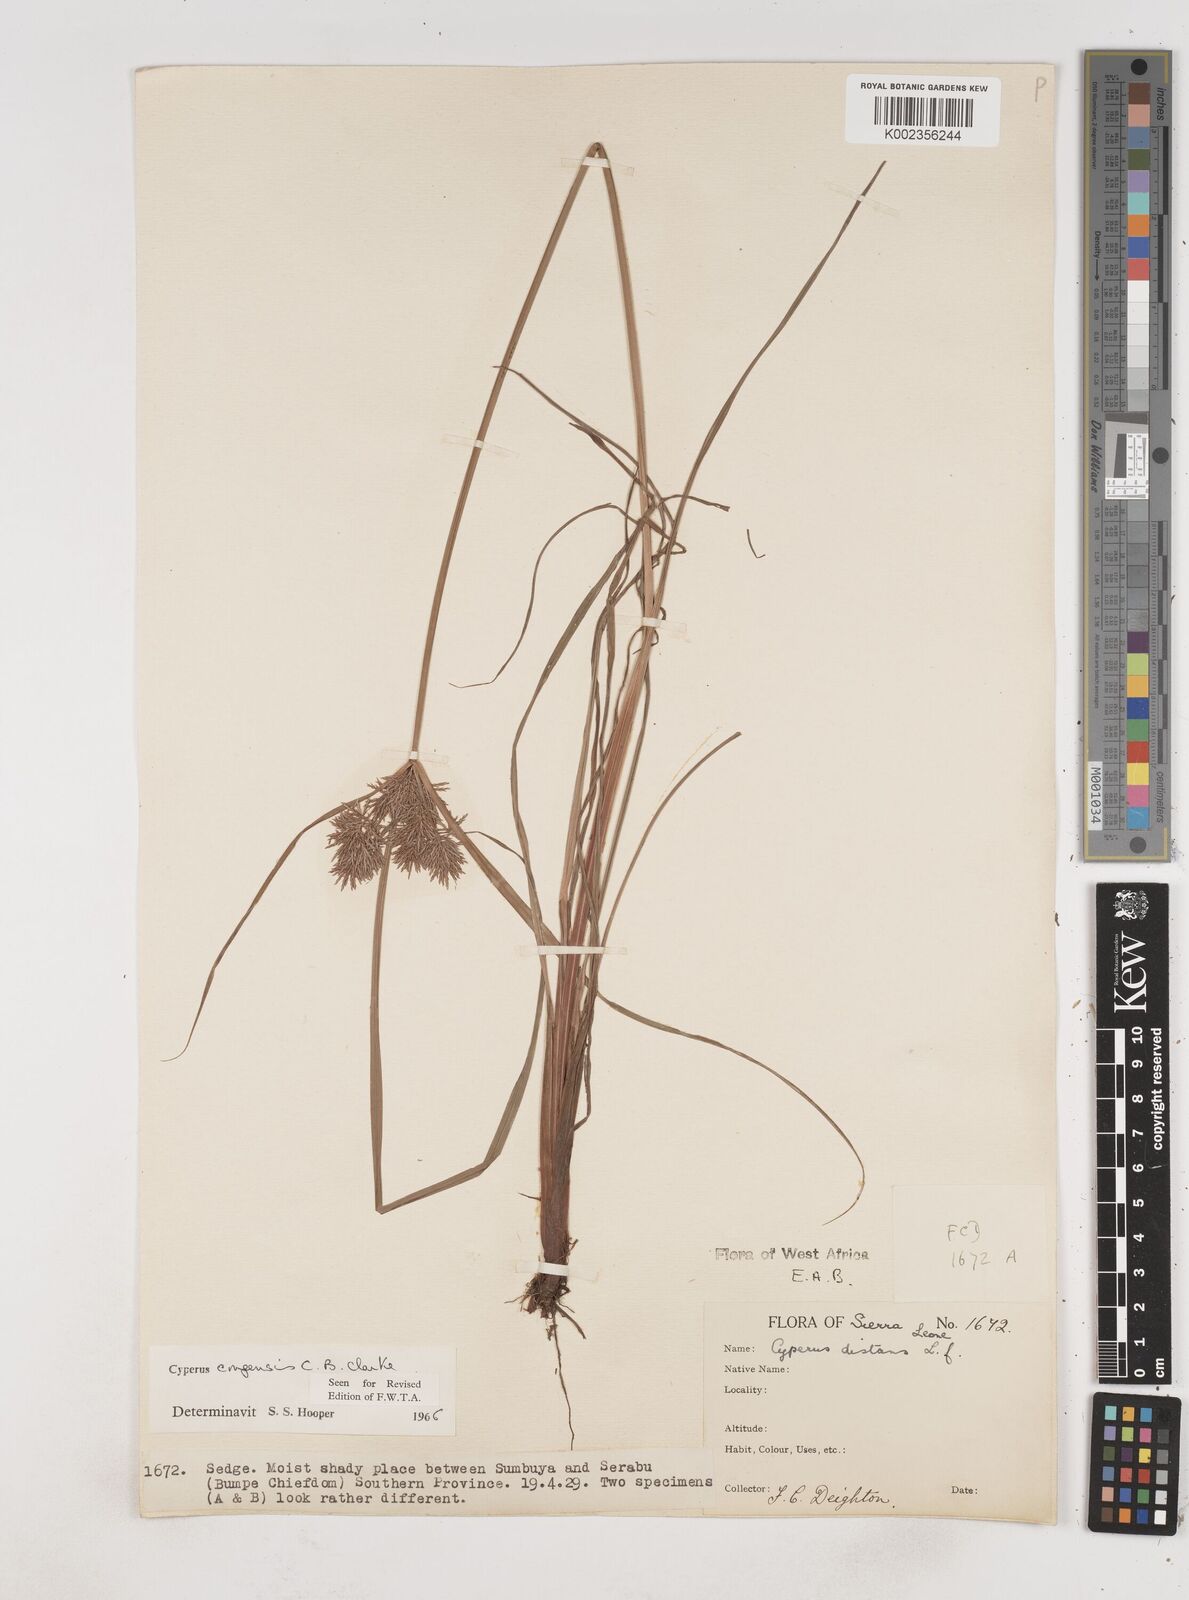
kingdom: Plantae
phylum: Tracheophyta
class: Liliopsida
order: Poales
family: Cyperaceae
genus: Cyperus
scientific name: Cyperus congensis
